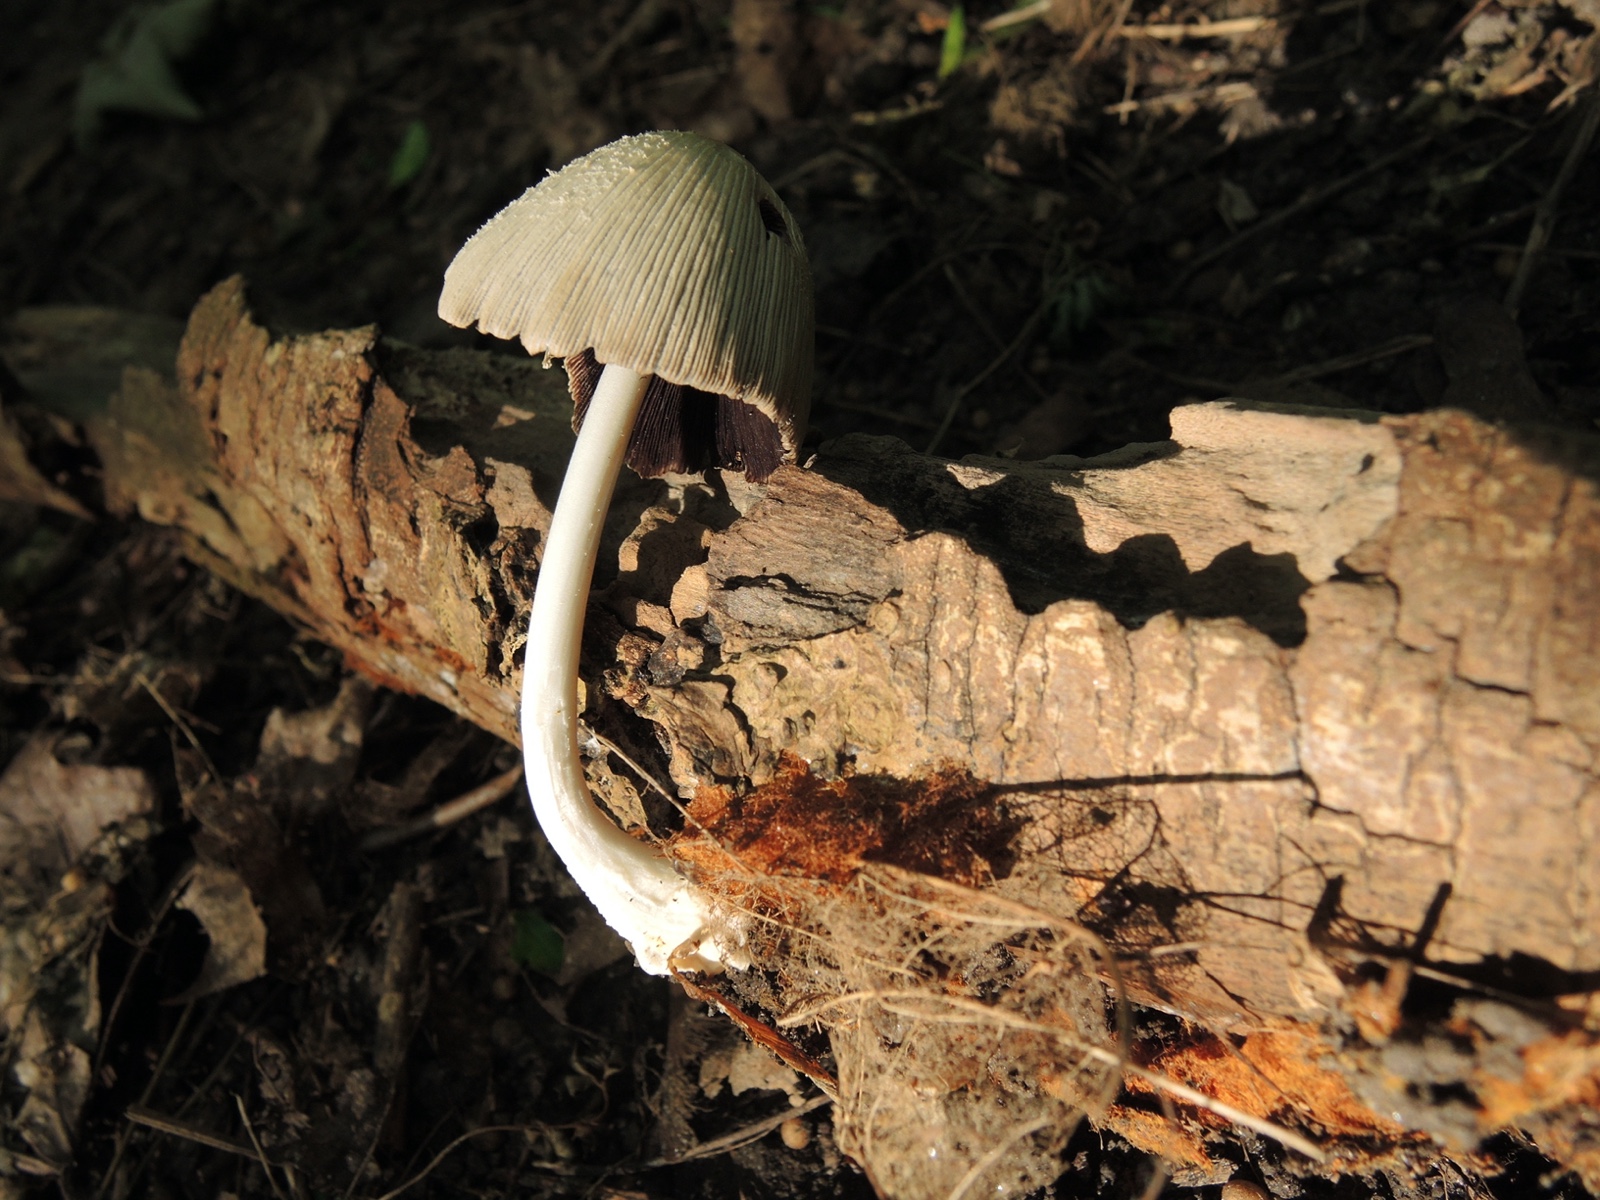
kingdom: Fungi
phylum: Basidiomycota
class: Agaricomycetes
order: Agaricales
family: Psathyrellaceae
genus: Coprinellus
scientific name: Coprinellus
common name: blækhat
